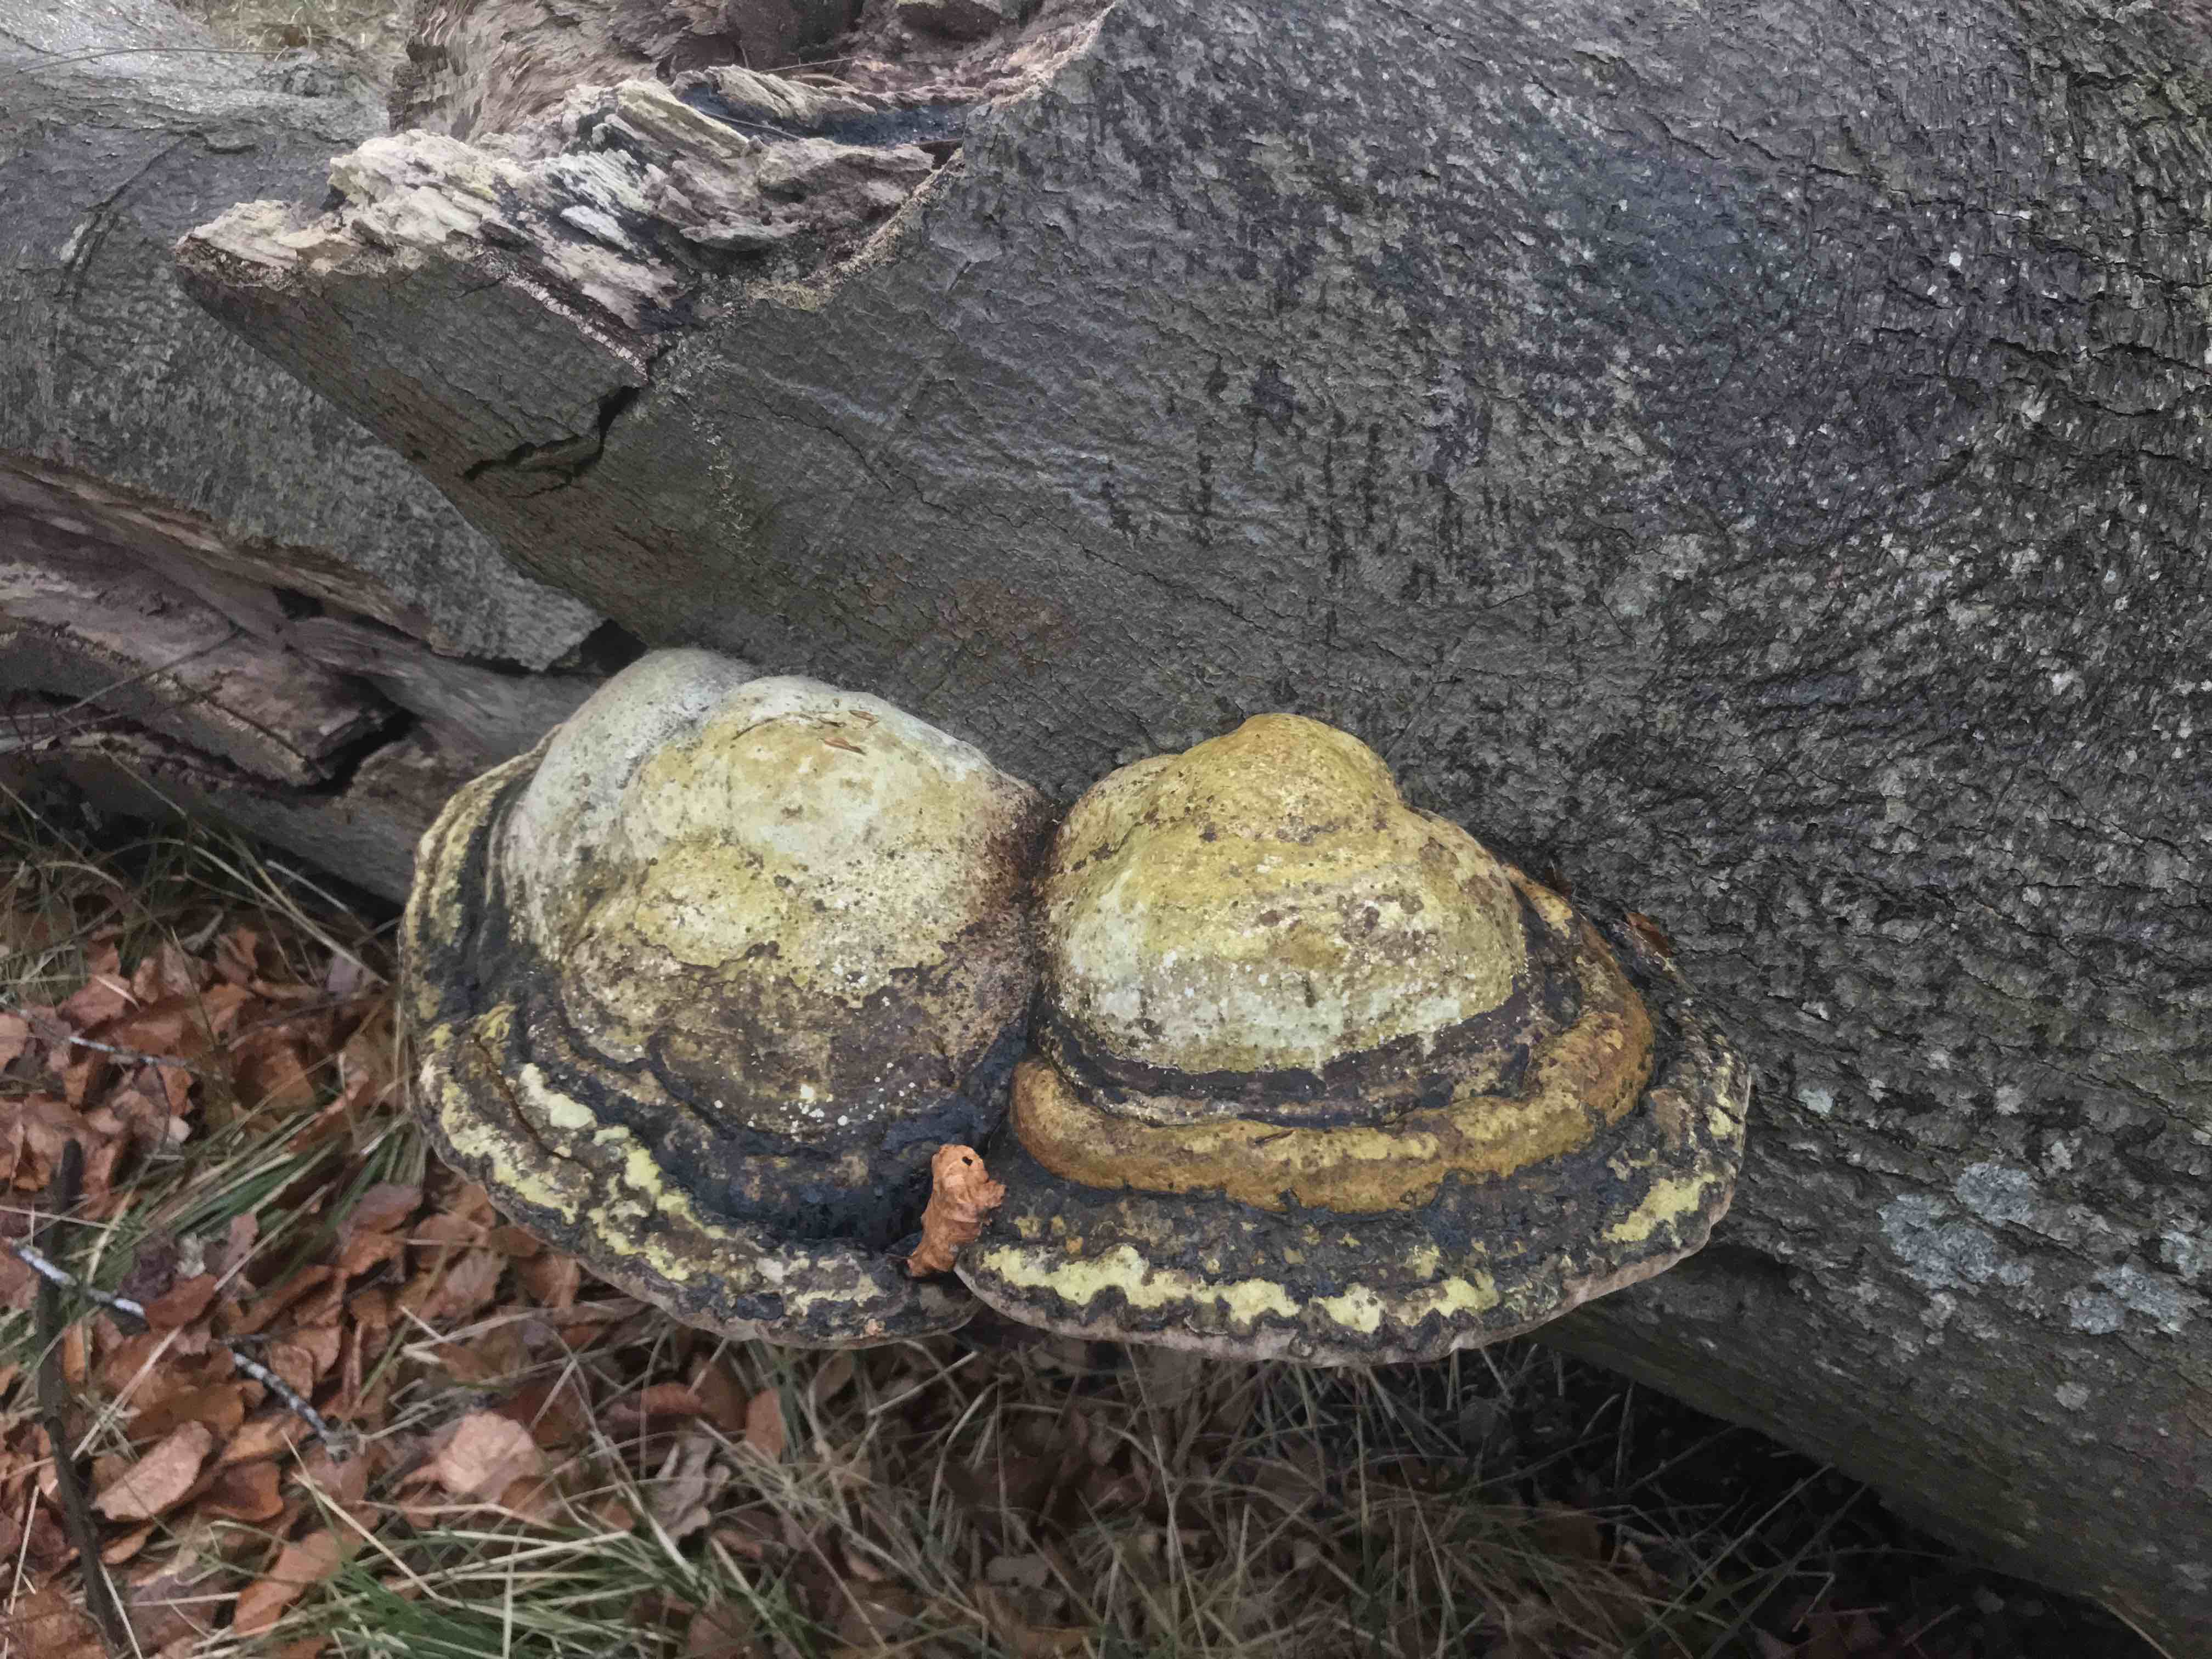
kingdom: Fungi
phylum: Basidiomycota
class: Agaricomycetes
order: Polyporales
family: Polyporaceae
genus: Fomes
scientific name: Fomes fomentarius
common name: tøndersvamp
